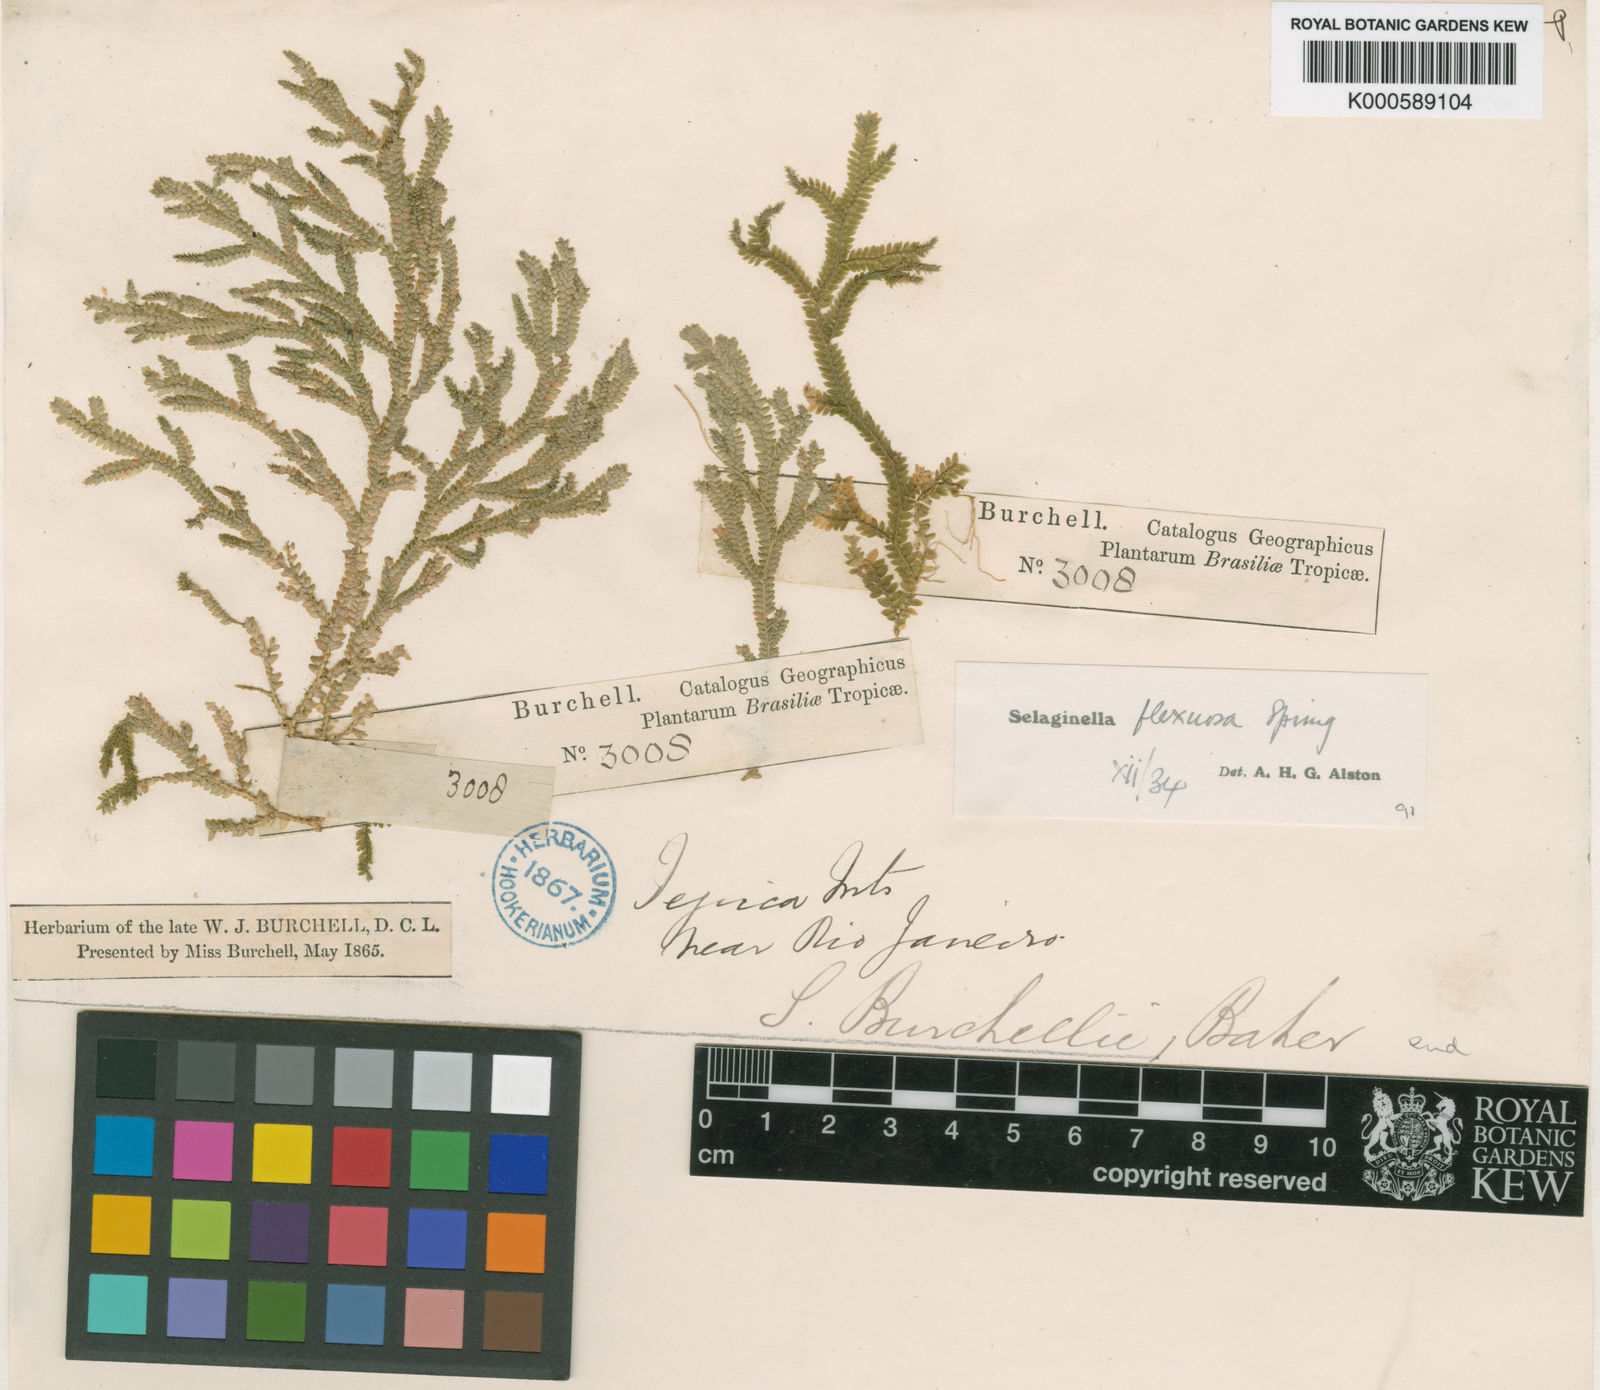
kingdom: Plantae
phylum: Tracheophyta
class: Lycopodiopsida
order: Selaginellales
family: Selaginellaceae
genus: Selaginella
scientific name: Selaginella flexuosa
